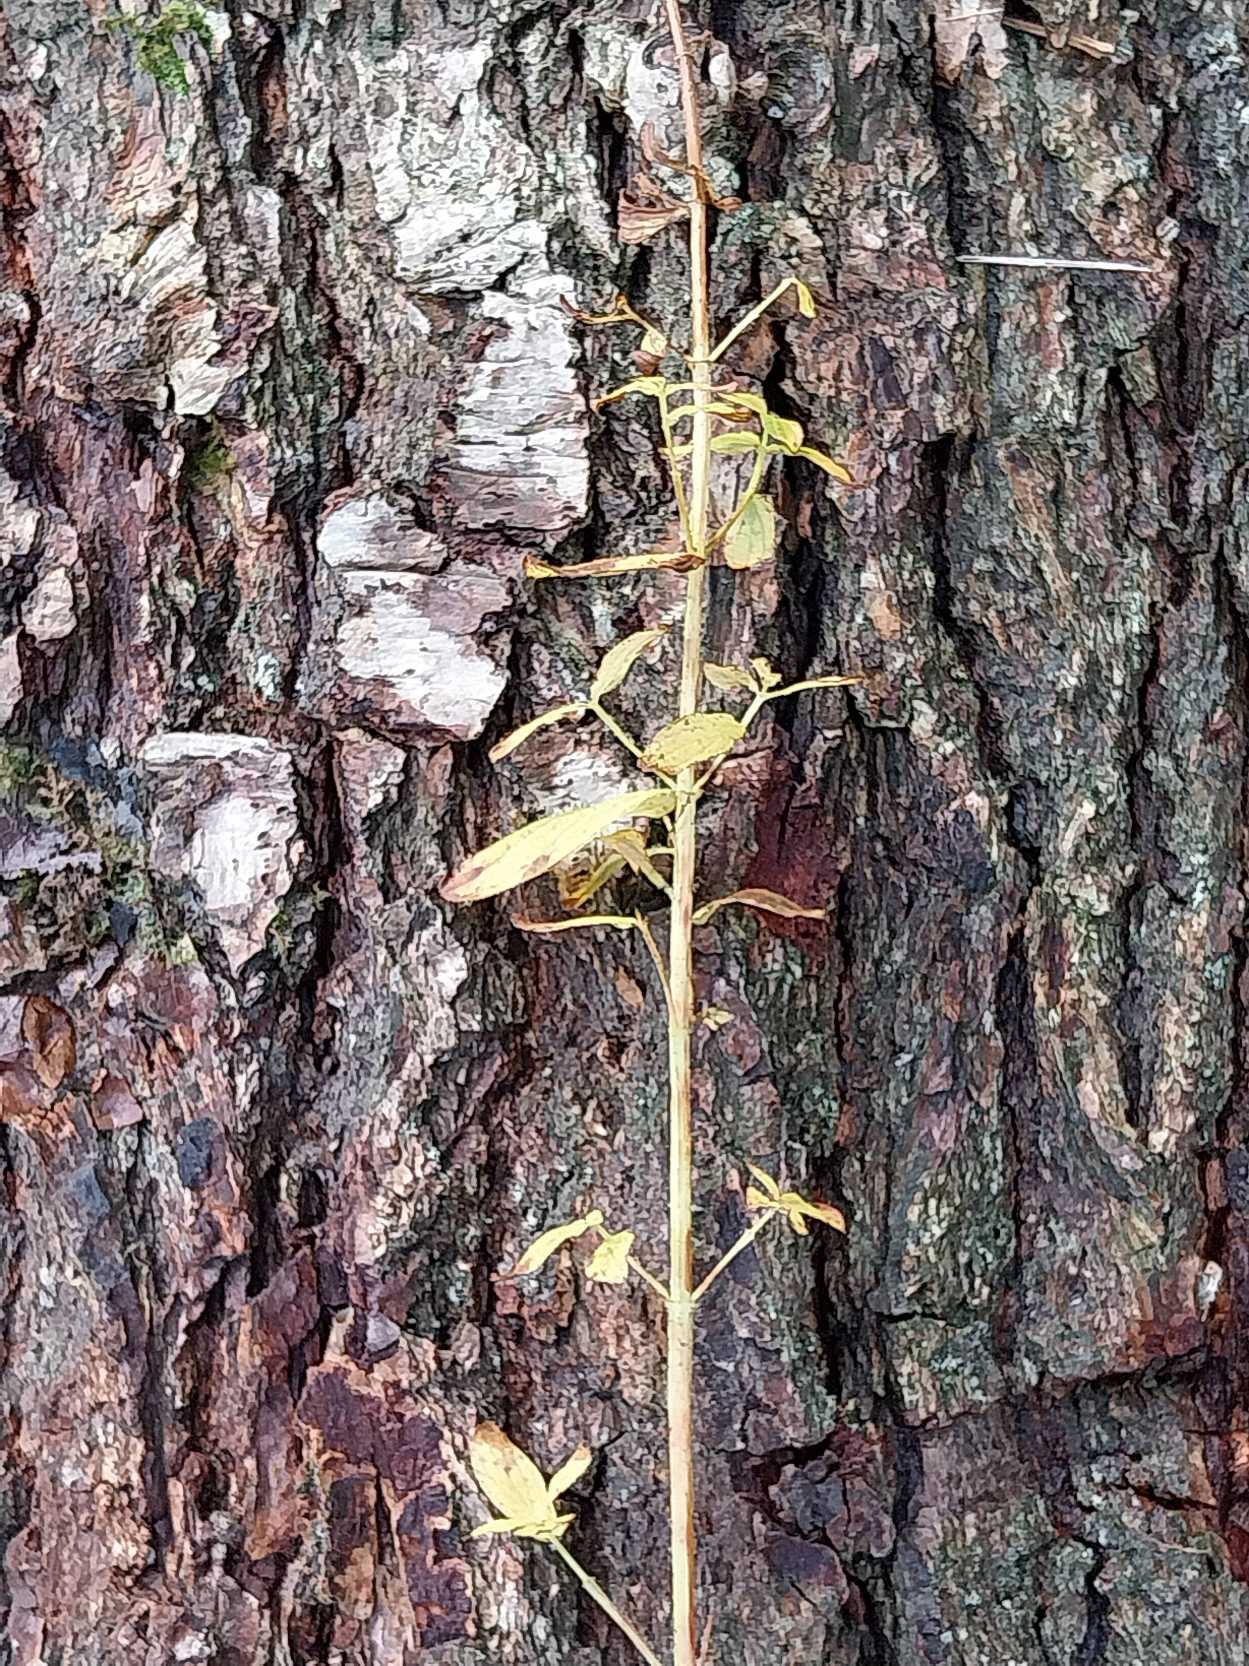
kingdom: Plantae
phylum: Tracheophyta
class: Magnoliopsida
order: Malpighiales
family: Hypericaceae
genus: Hypericum
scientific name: Hypericum maculatum
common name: Kantet perikon
